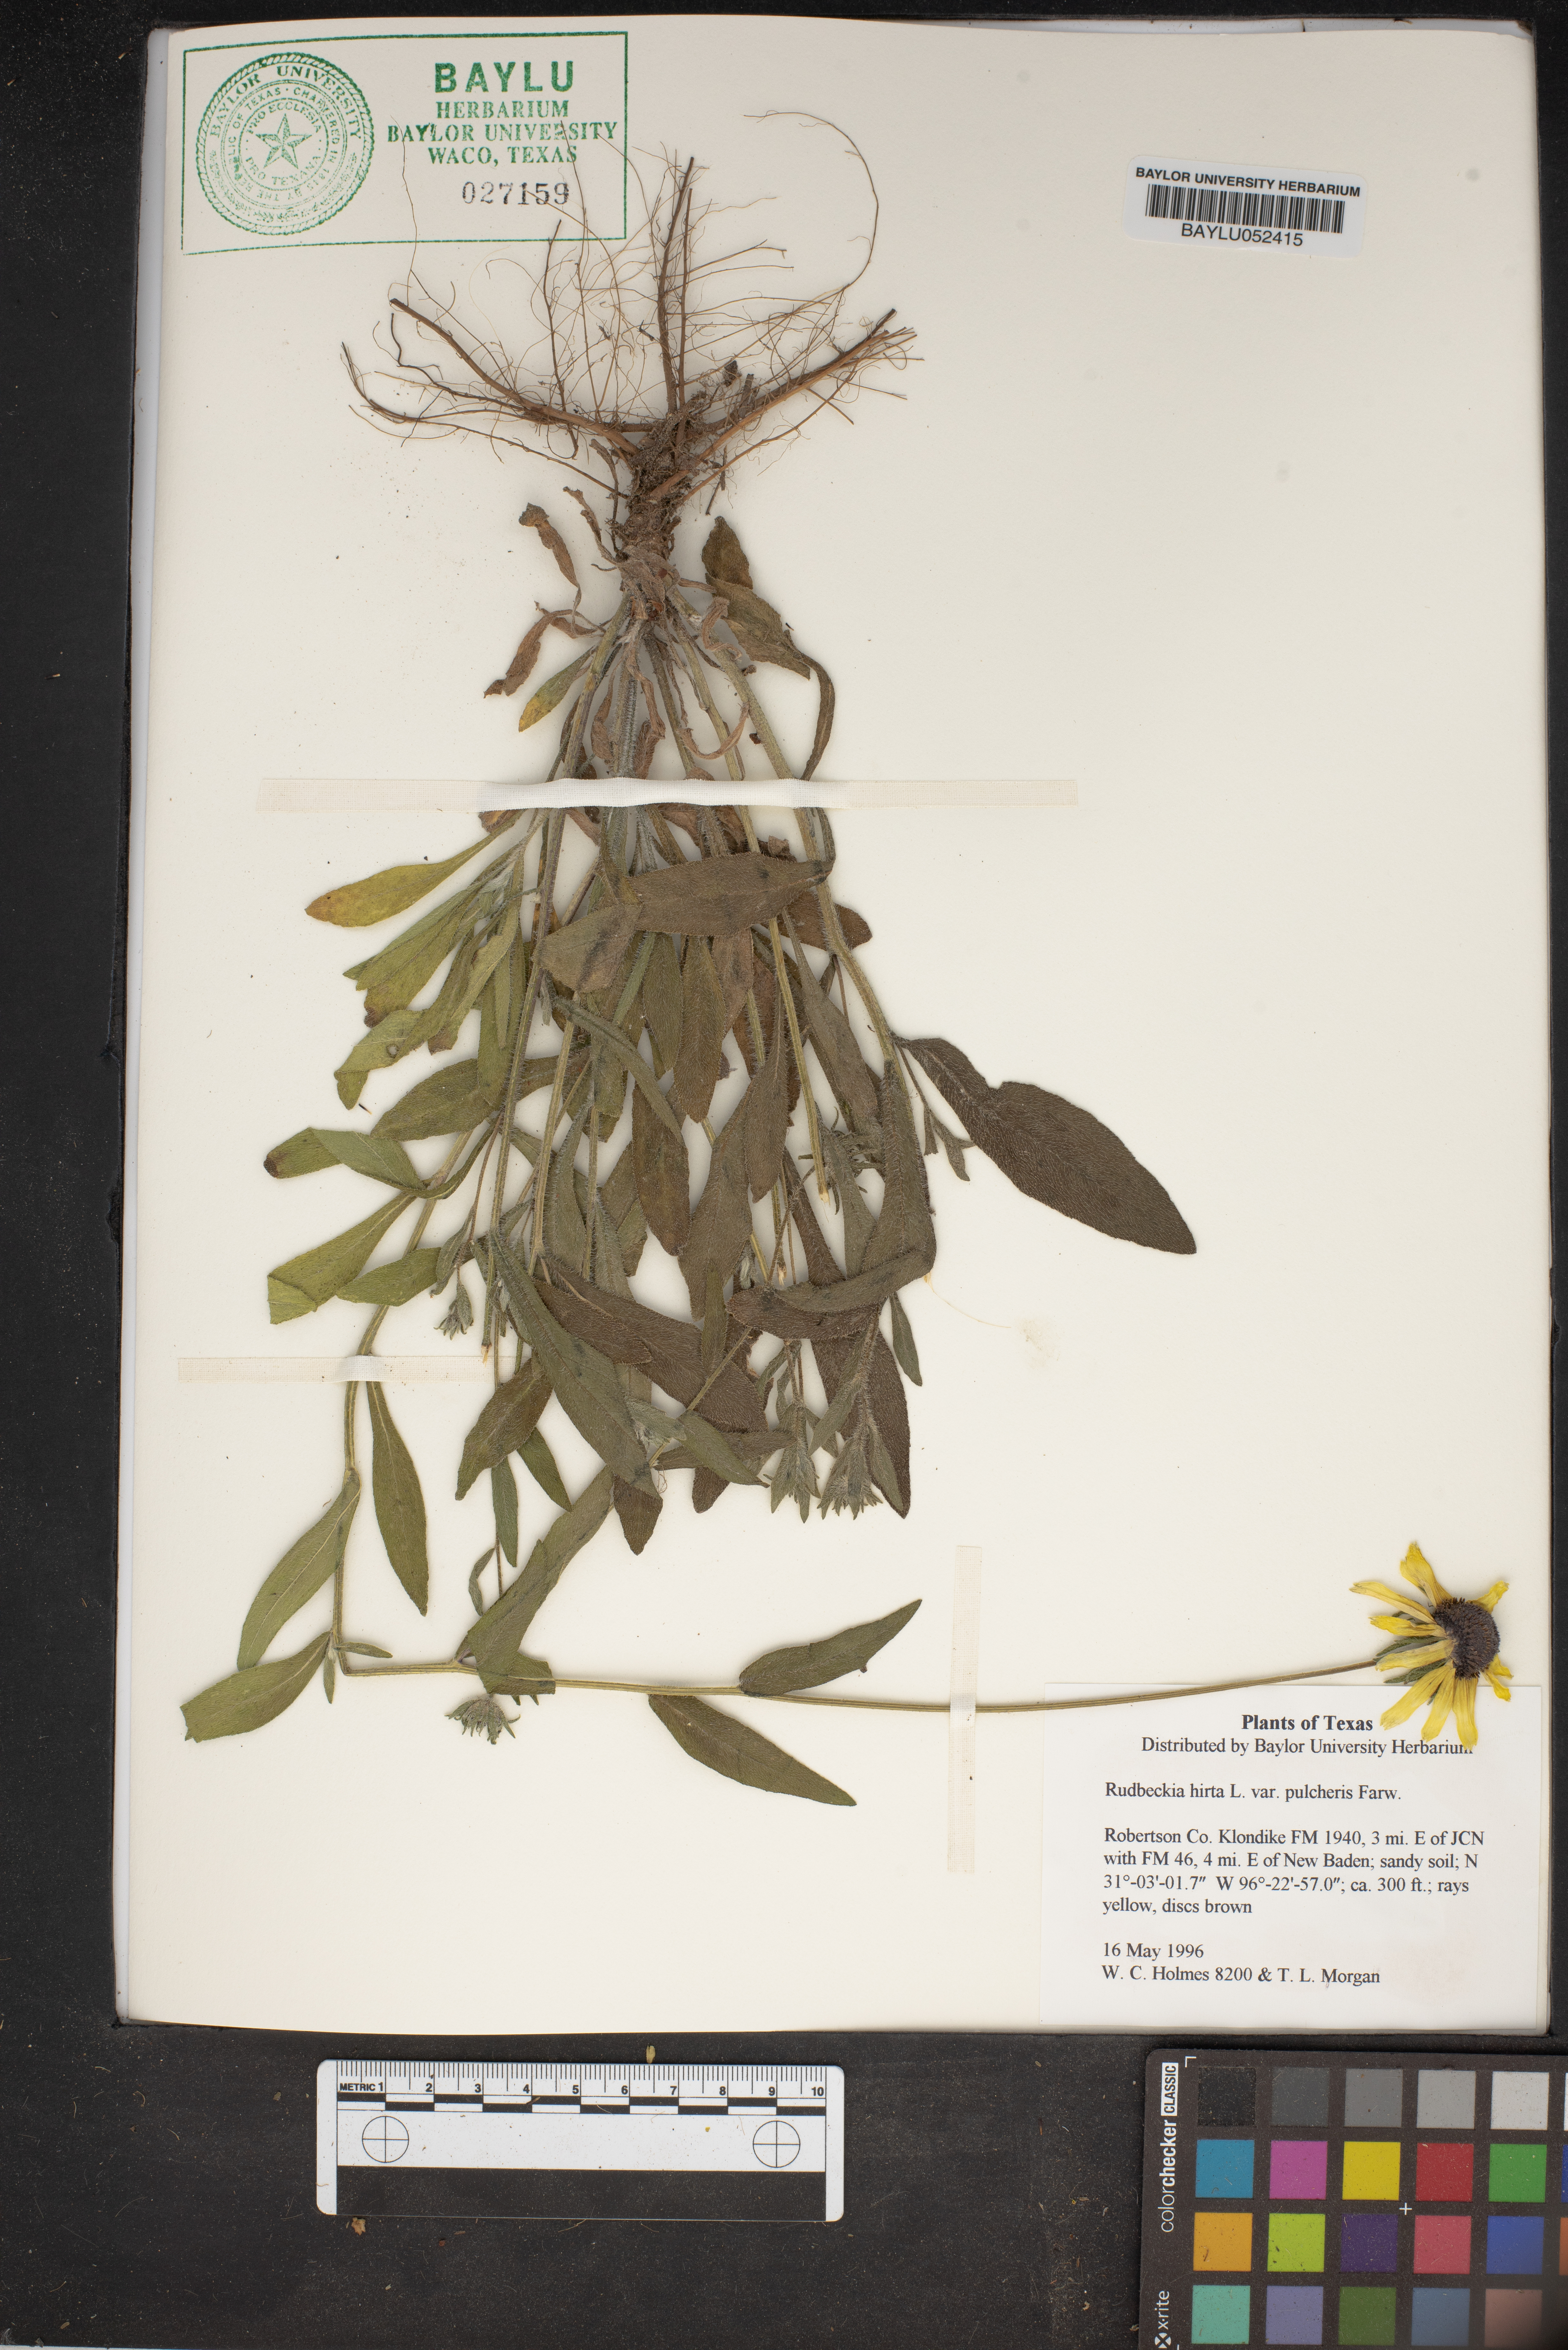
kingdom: Plantae
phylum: Tracheophyta
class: Magnoliopsida
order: Asterales
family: Asteraceae
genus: Rudbeckia
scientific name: Rudbeckia hirta
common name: Black-eyed-susan
